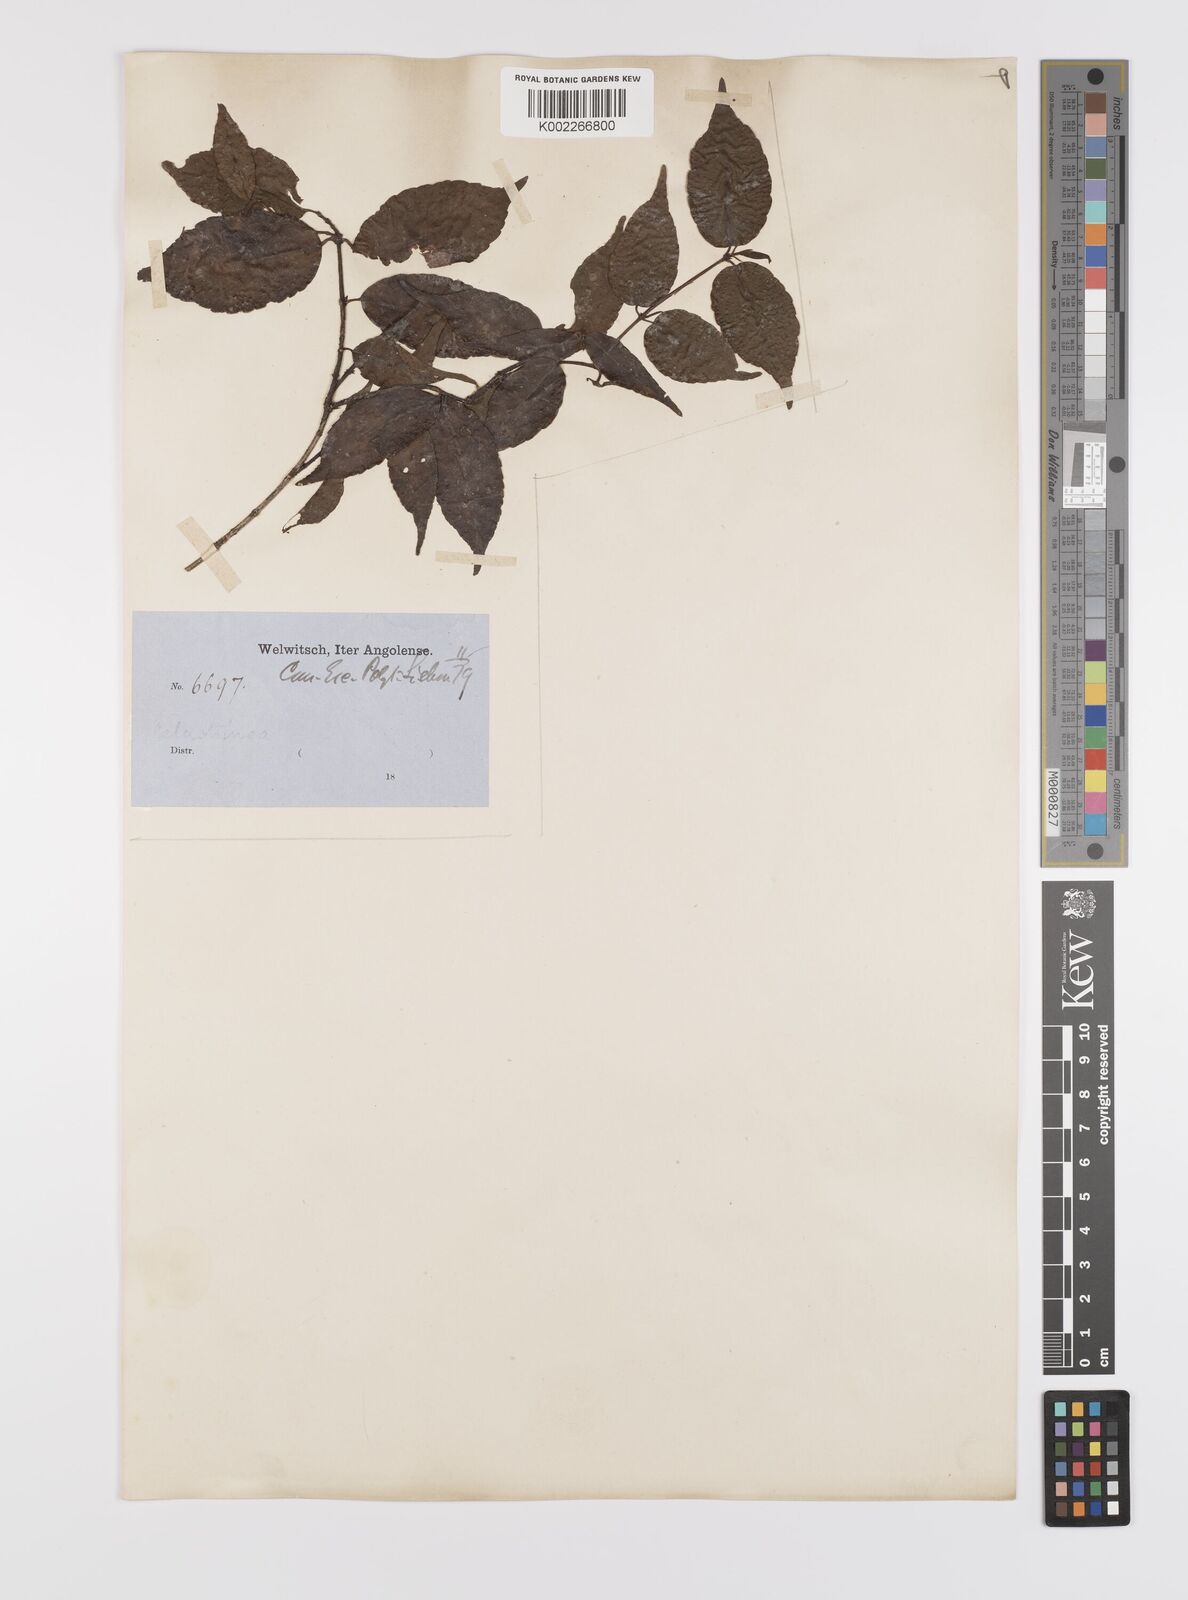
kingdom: Plantae
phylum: Tracheophyta
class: Magnoliopsida
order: Celastrales
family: Celastraceae
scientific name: Celastraceae
